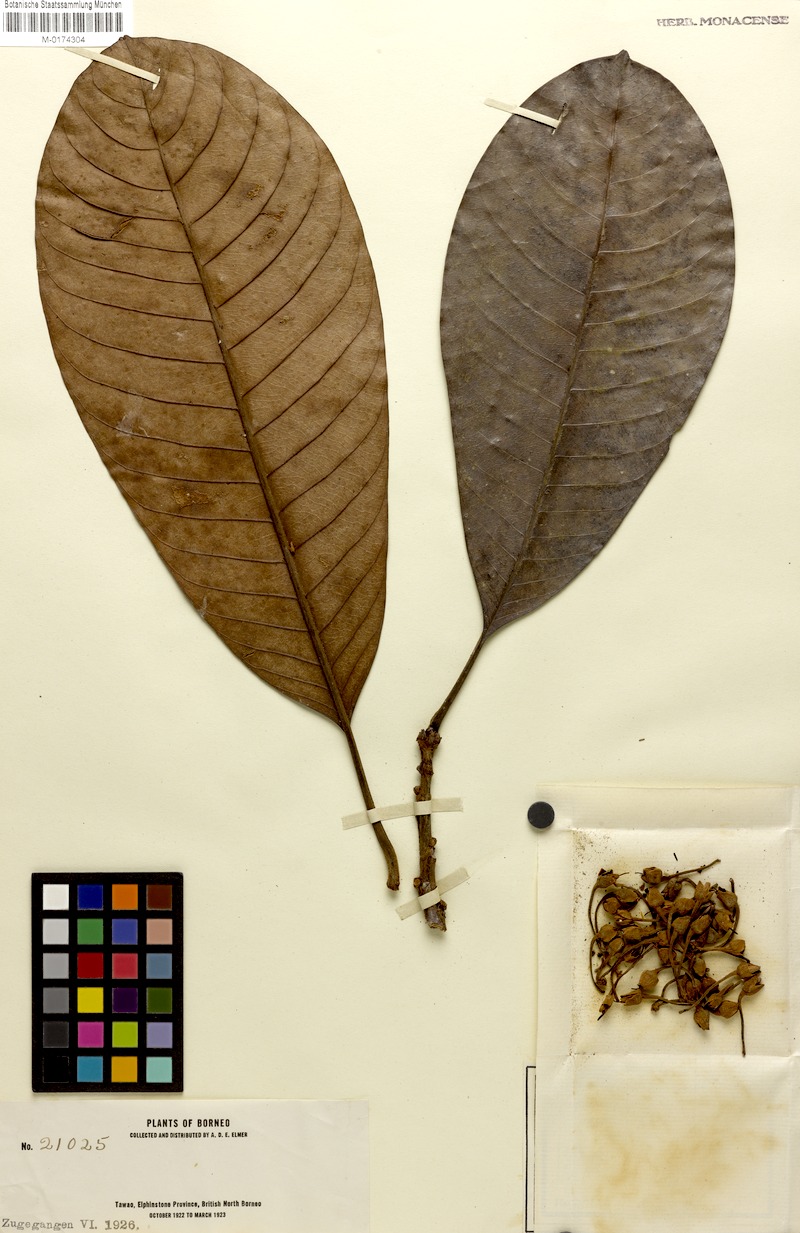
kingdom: Plantae
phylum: Tracheophyta
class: Magnoliopsida
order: Ericales
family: Sapotaceae
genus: Madhuca
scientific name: Madhuca
